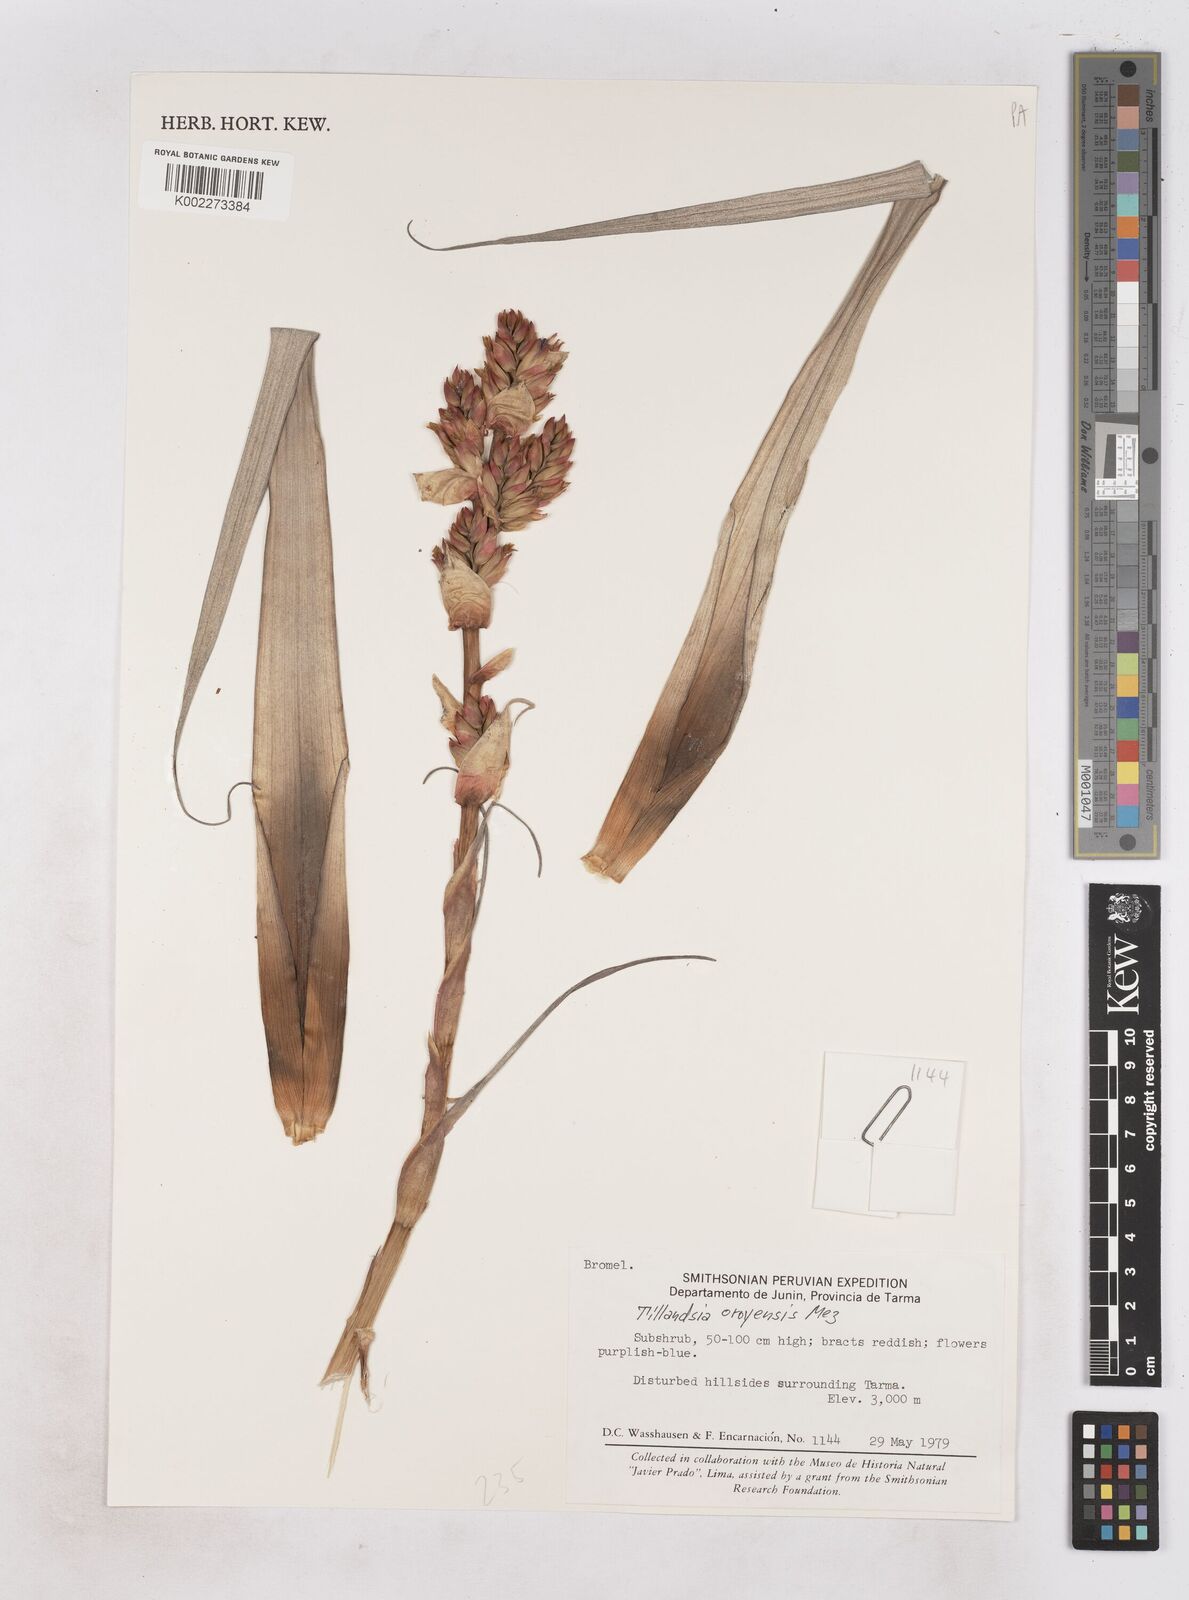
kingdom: Plantae
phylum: Tracheophyta
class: Liliopsida
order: Poales
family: Bromeliaceae
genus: Tillandsia
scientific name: Tillandsia oroyensis
